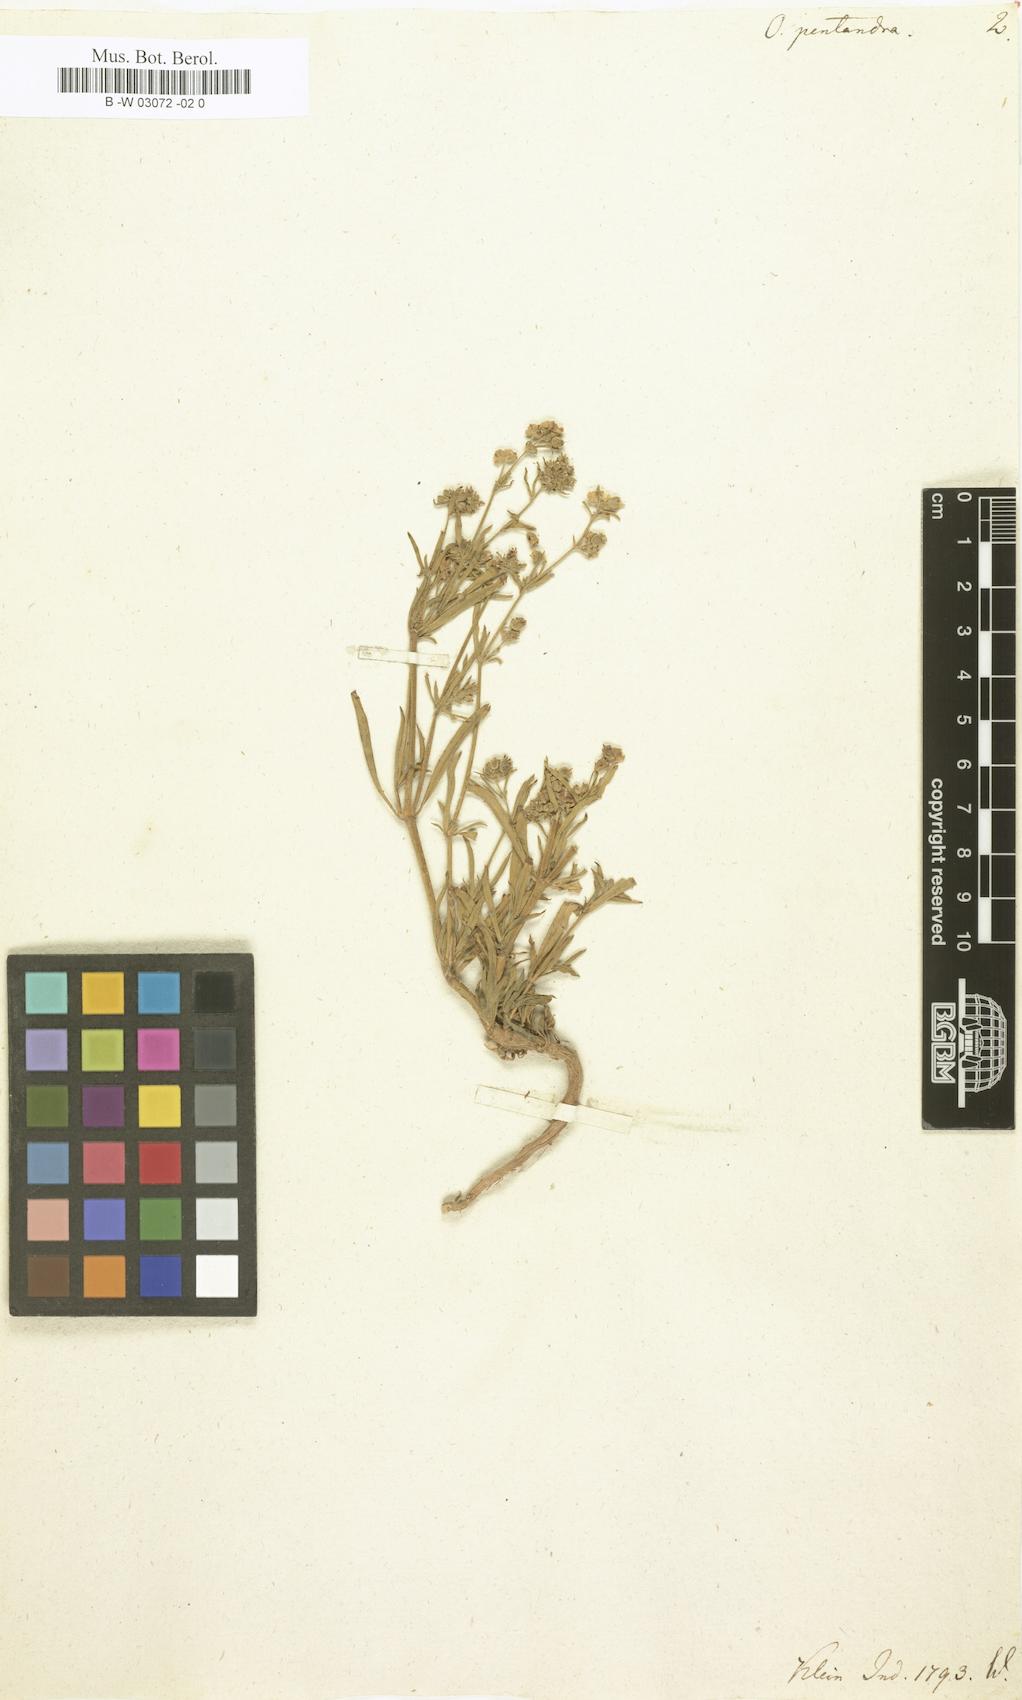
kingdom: Plantae
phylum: Tracheophyta
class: Magnoliopsida
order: Gentianales
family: Rubiaceae
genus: Pentodon
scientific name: Pentodon pentandrus
